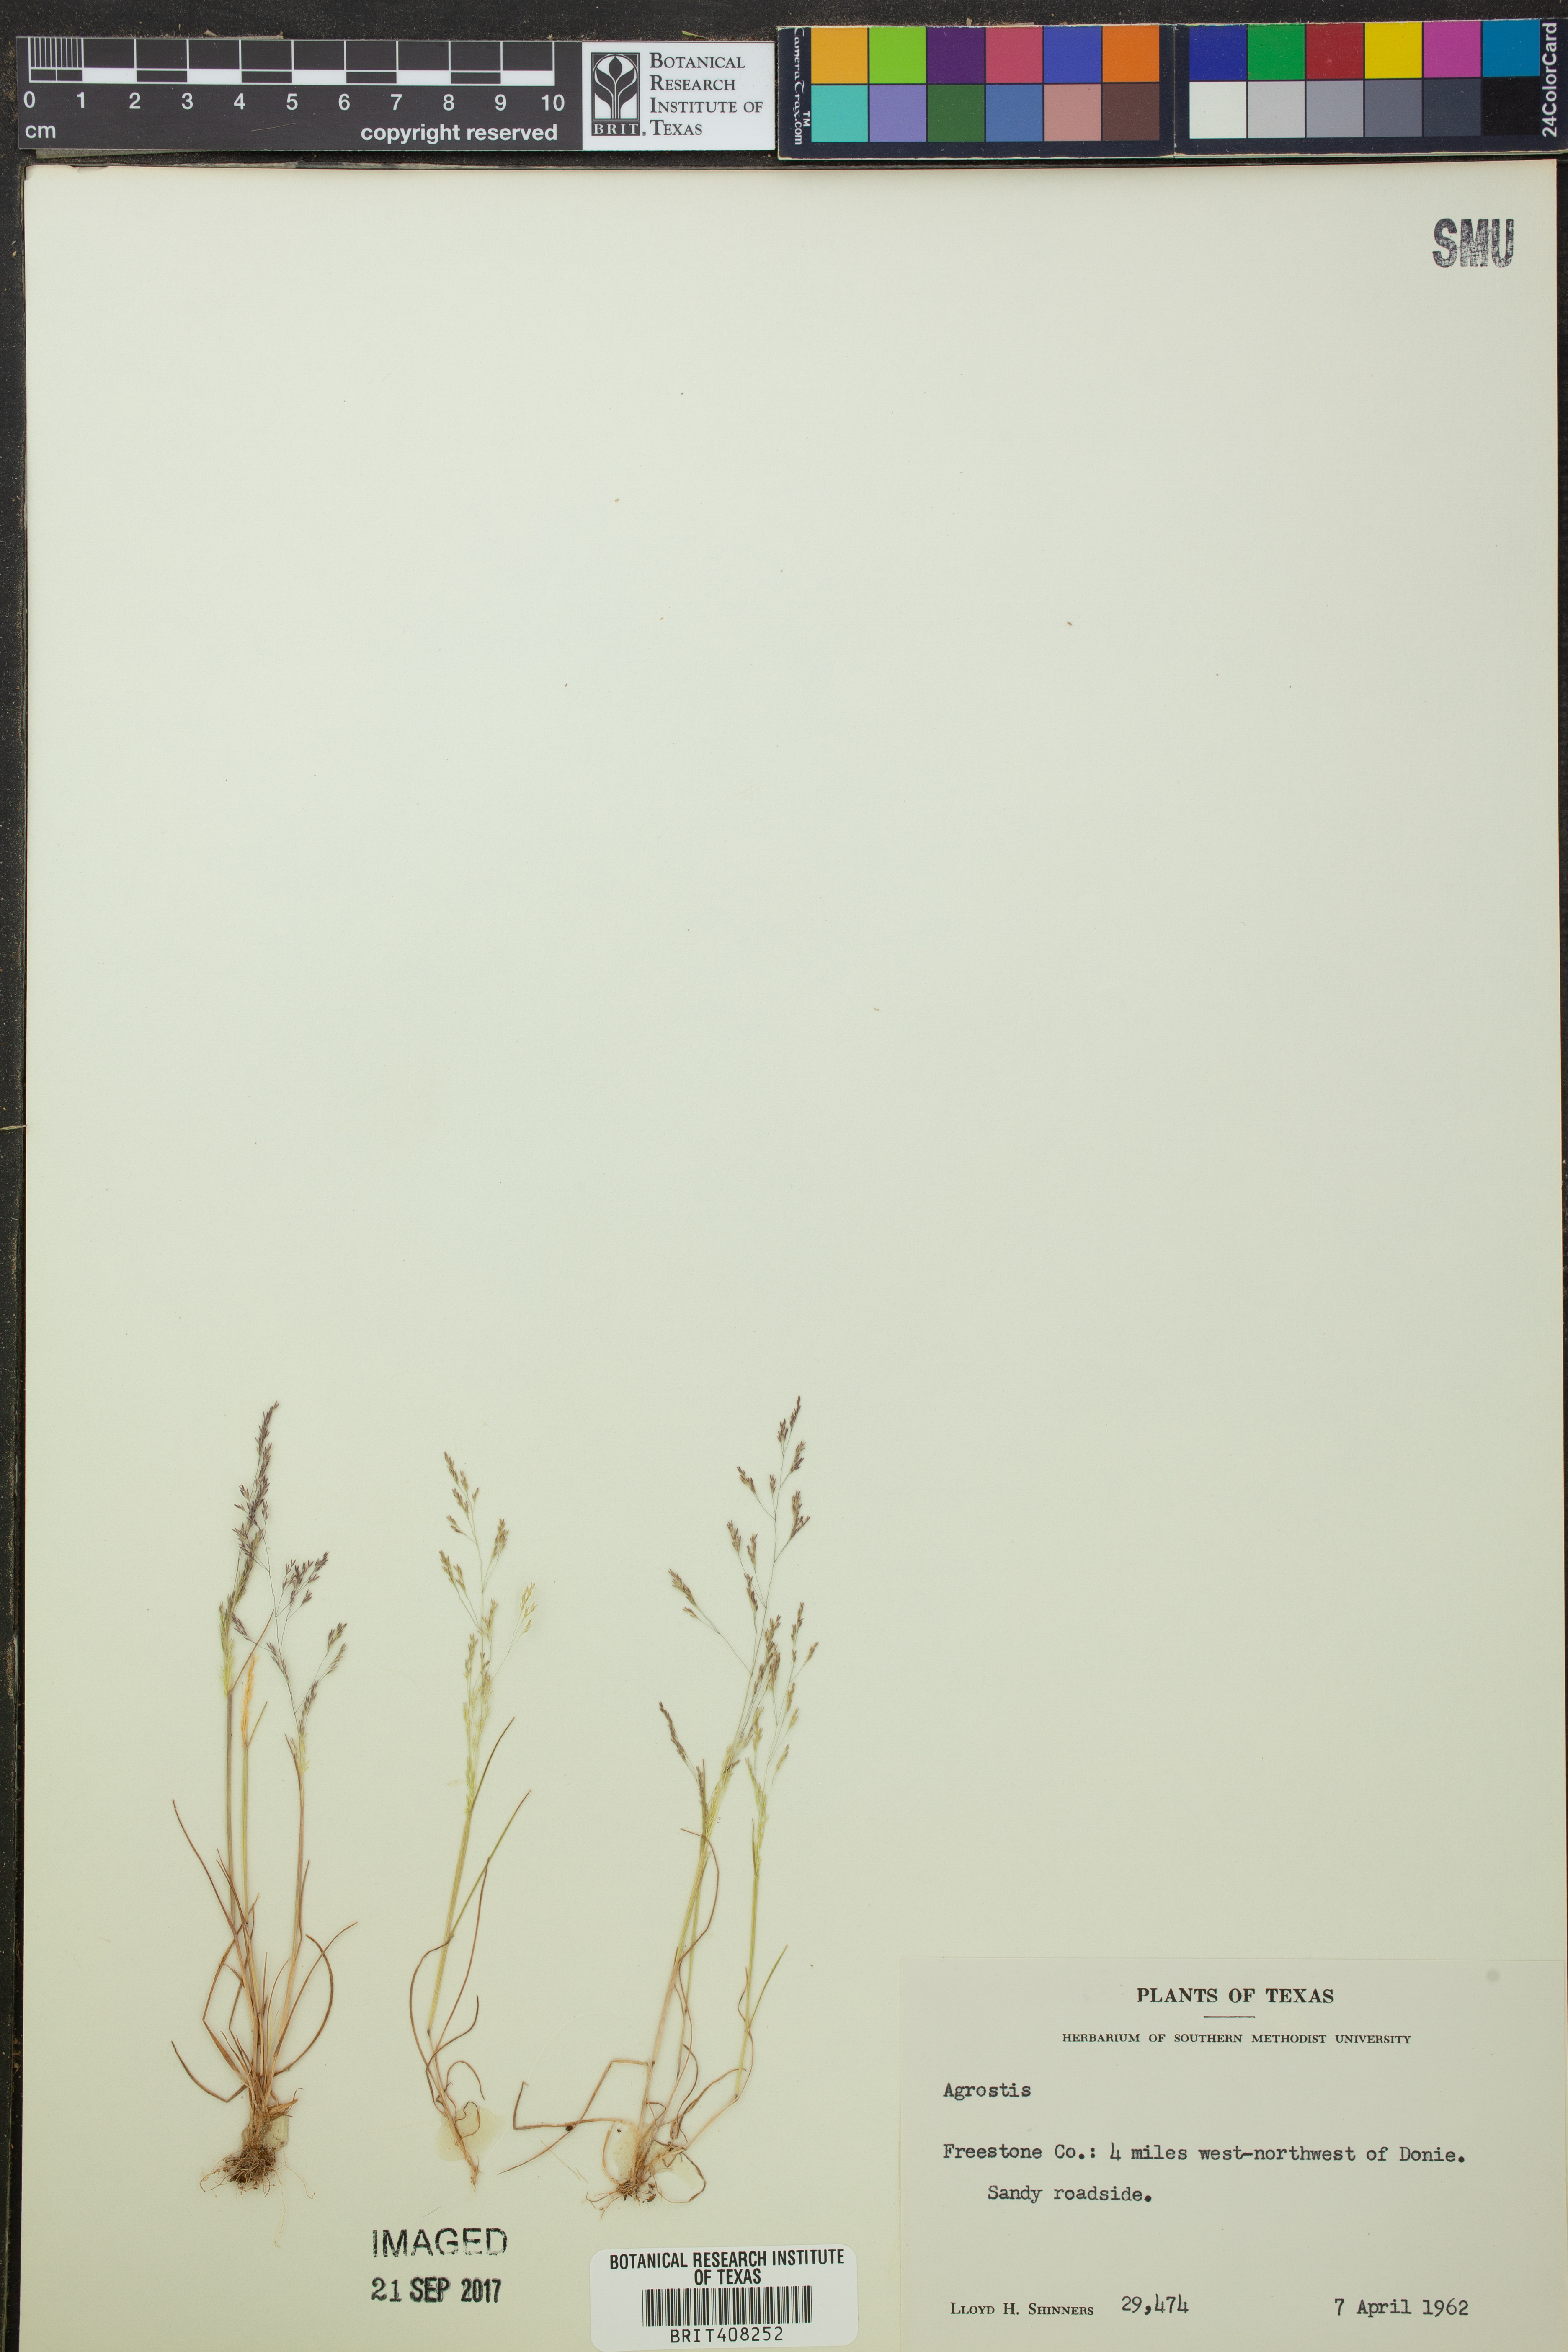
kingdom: Plantae
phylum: Tracheophyta
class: Liliopsida
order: Poales
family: Poaceae
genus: Agrostis
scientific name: Agrostis
